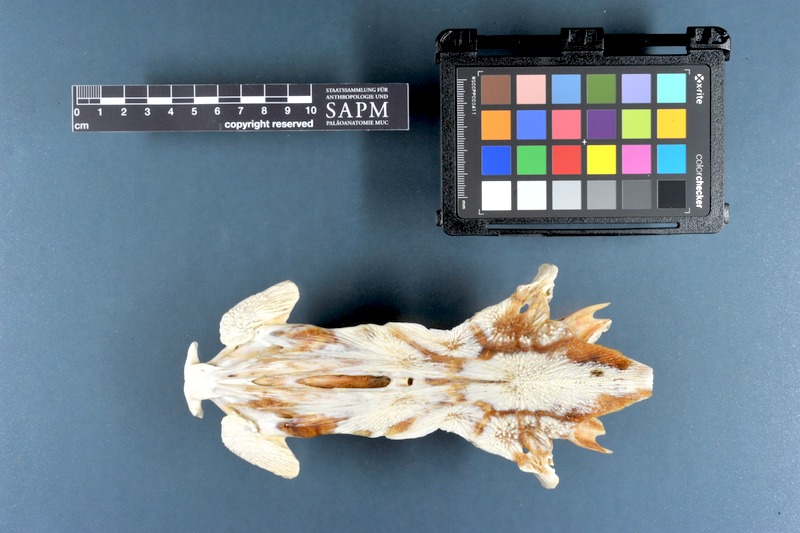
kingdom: Animalia
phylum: Chordata
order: Siluriformes
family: Ariidae
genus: Netuma
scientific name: Netuma thalassina
